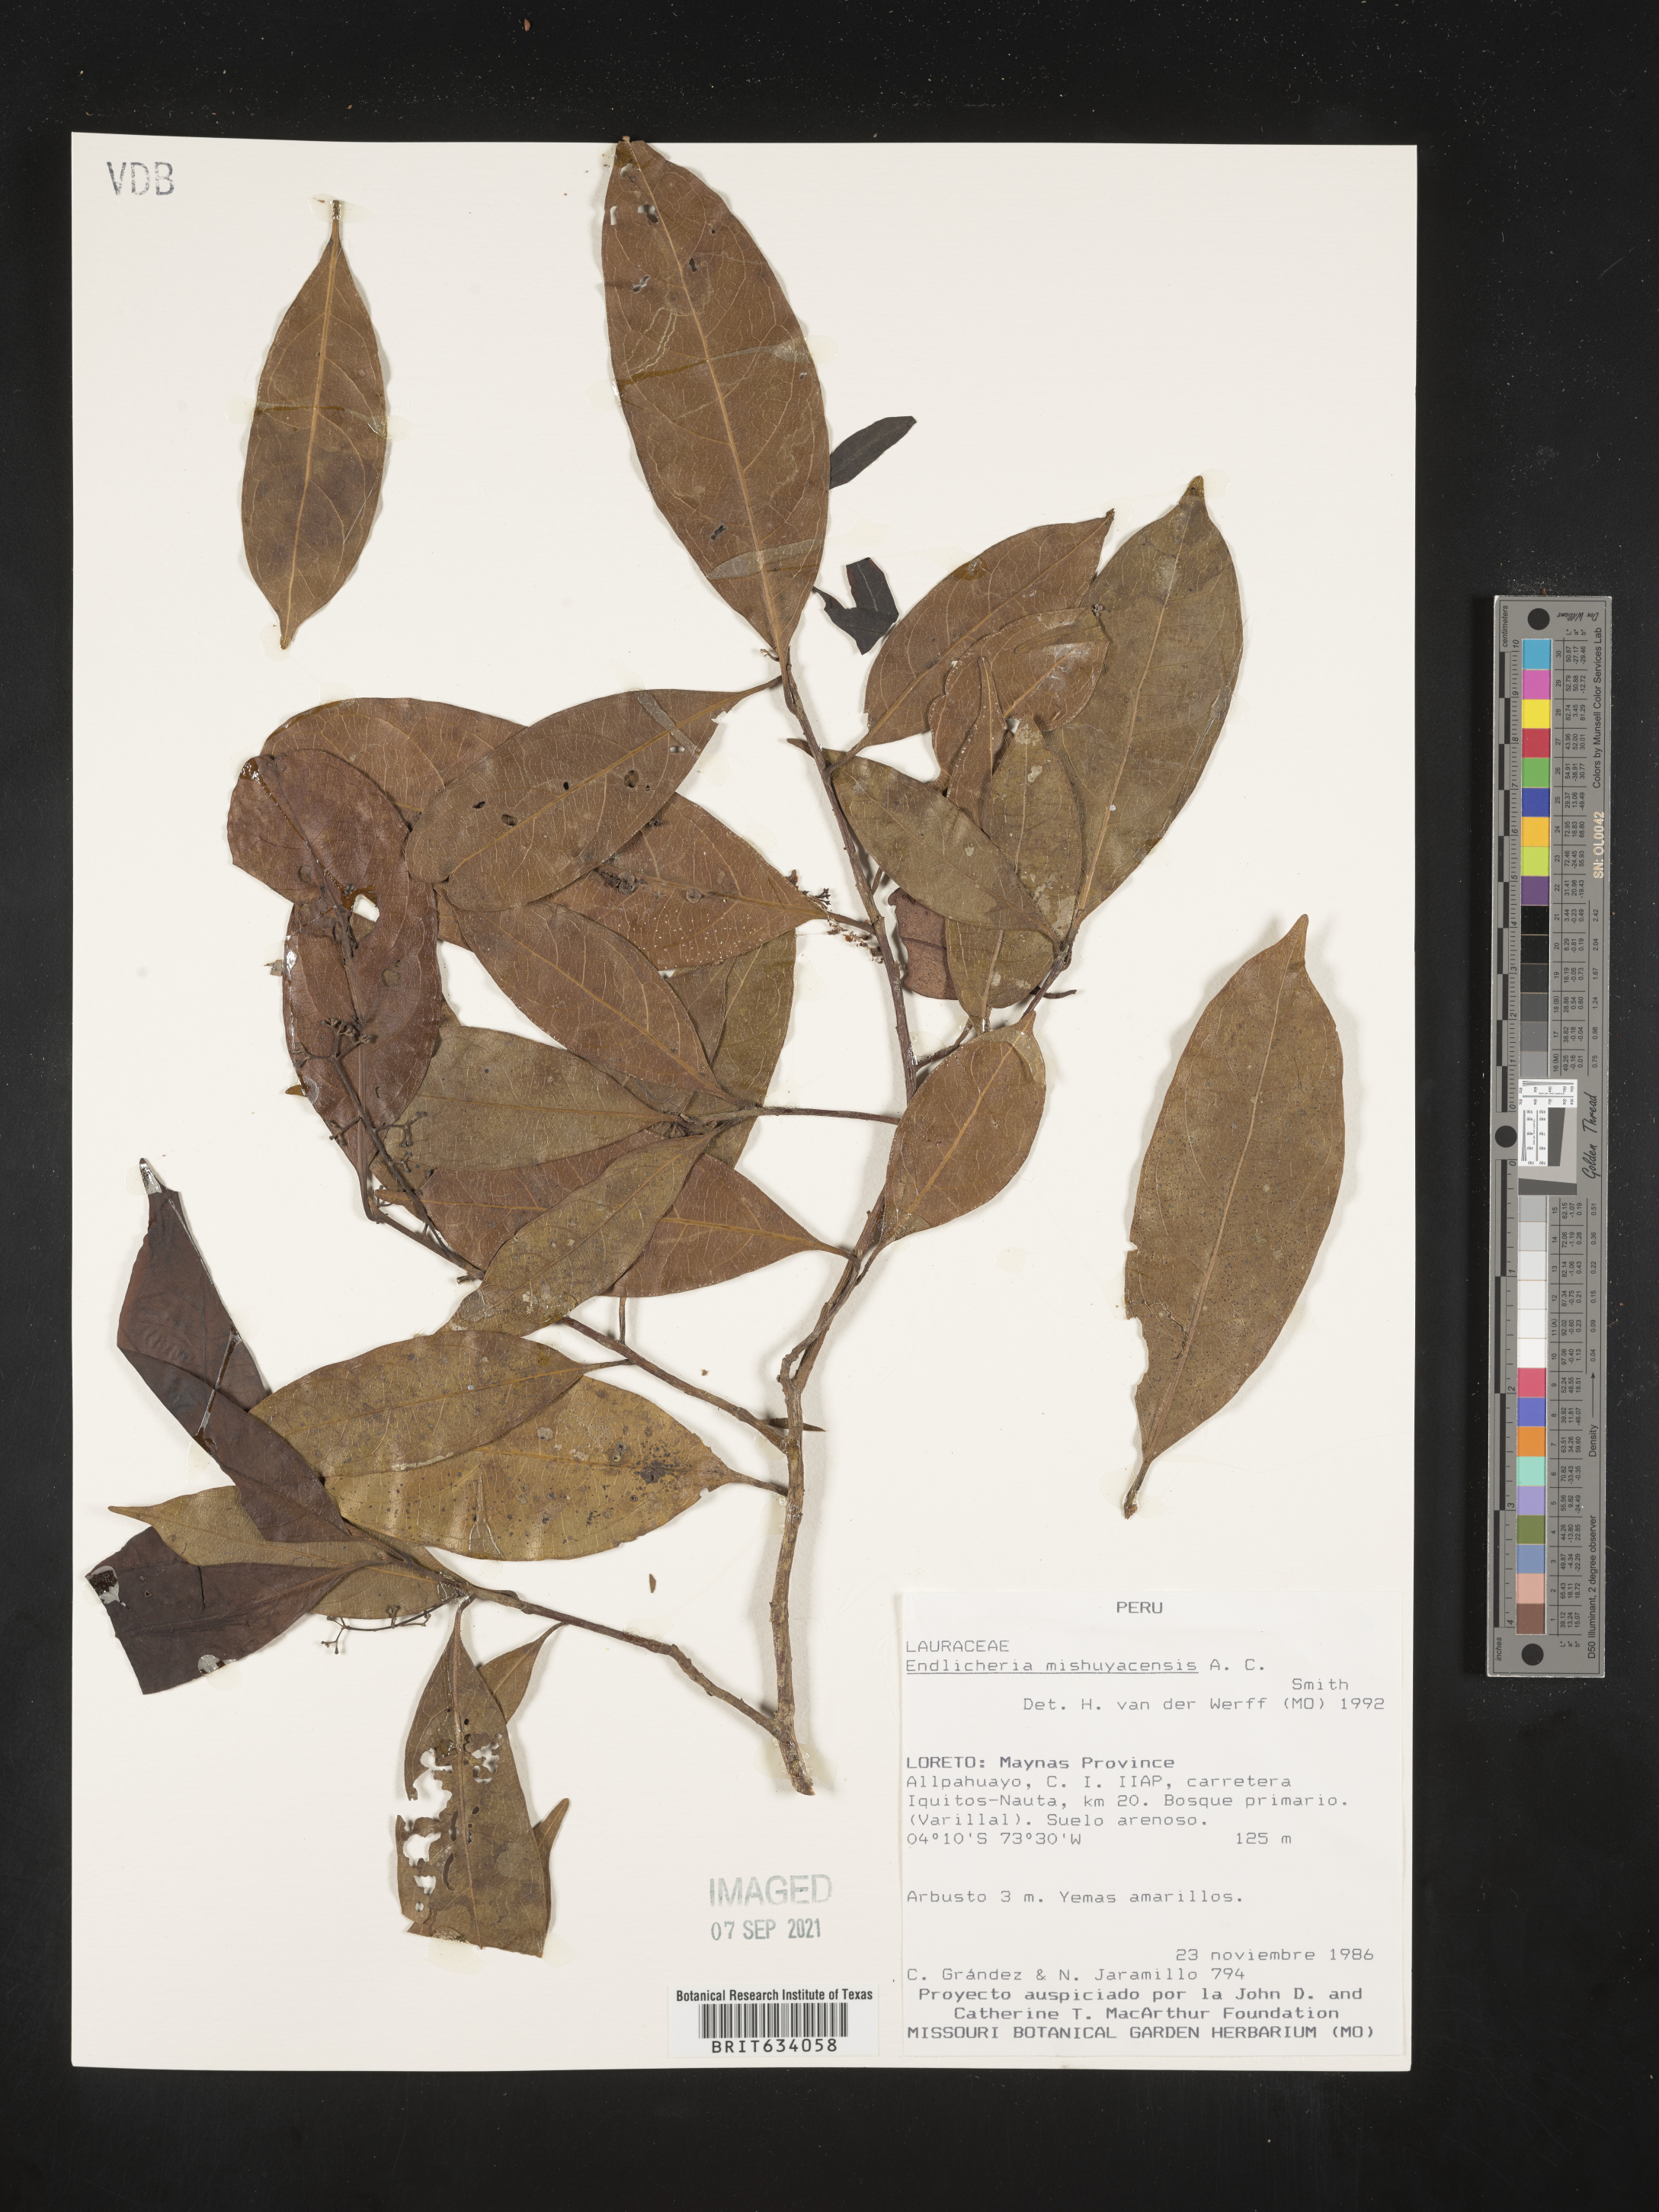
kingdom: Plantae
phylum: Tracheophyta
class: Magnoliopsida
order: Laurales
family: Lauraceae
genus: Endlicheria
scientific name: Endlicheria
